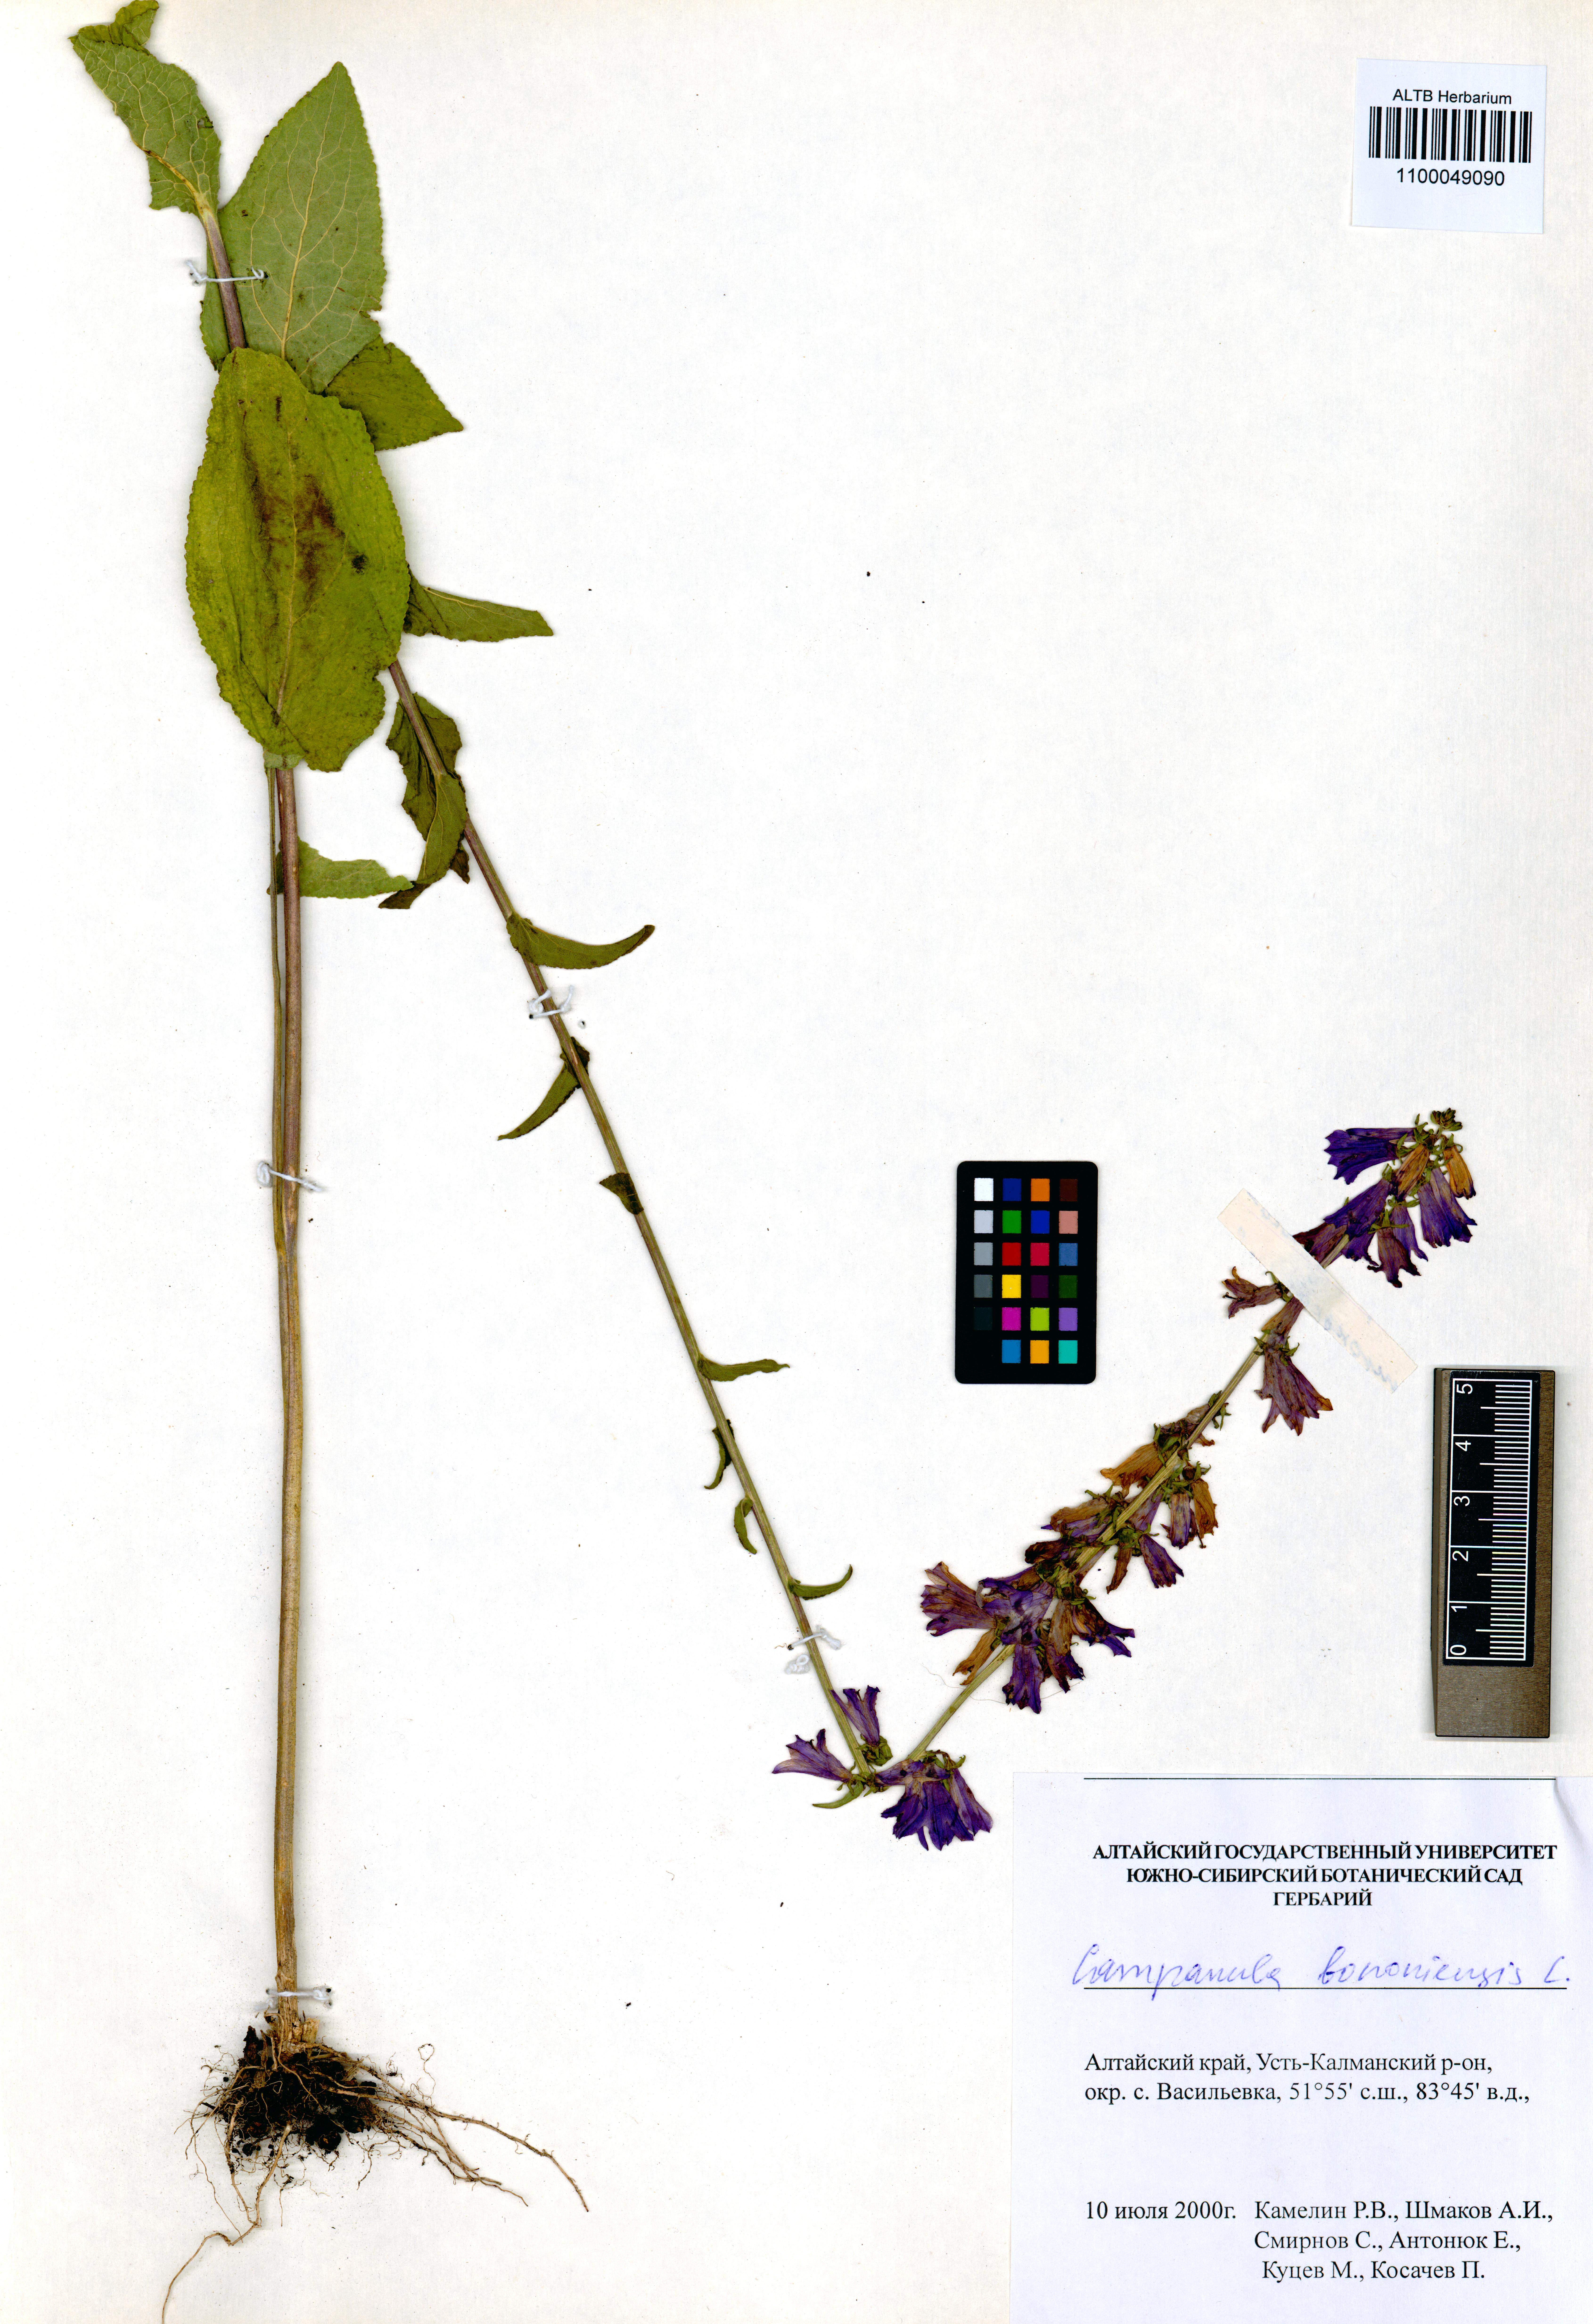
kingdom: Plantae
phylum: Tracheophyta
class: Magnoliopsida
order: Asterales
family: Campanulaceae
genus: Campanula
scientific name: Campanula bononiensis
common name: Pale bellflower
